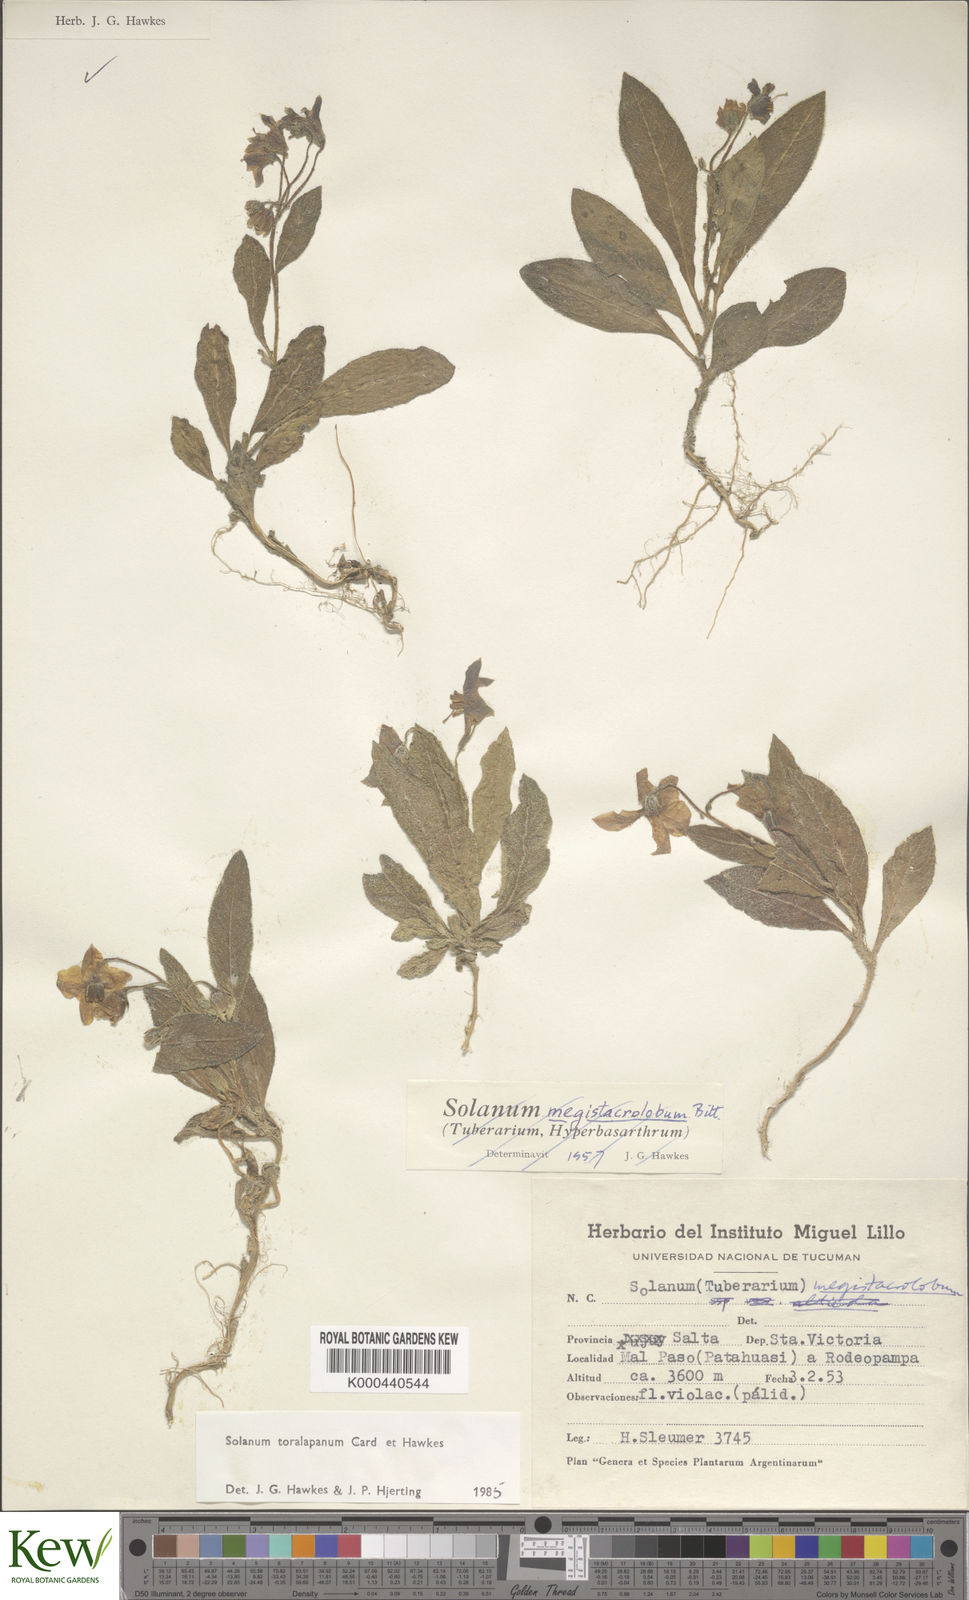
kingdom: Plantae
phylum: Tracheophyta
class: Magnoliopsida
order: Solanales
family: Solanaceae
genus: Solanum
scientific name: Solanum
